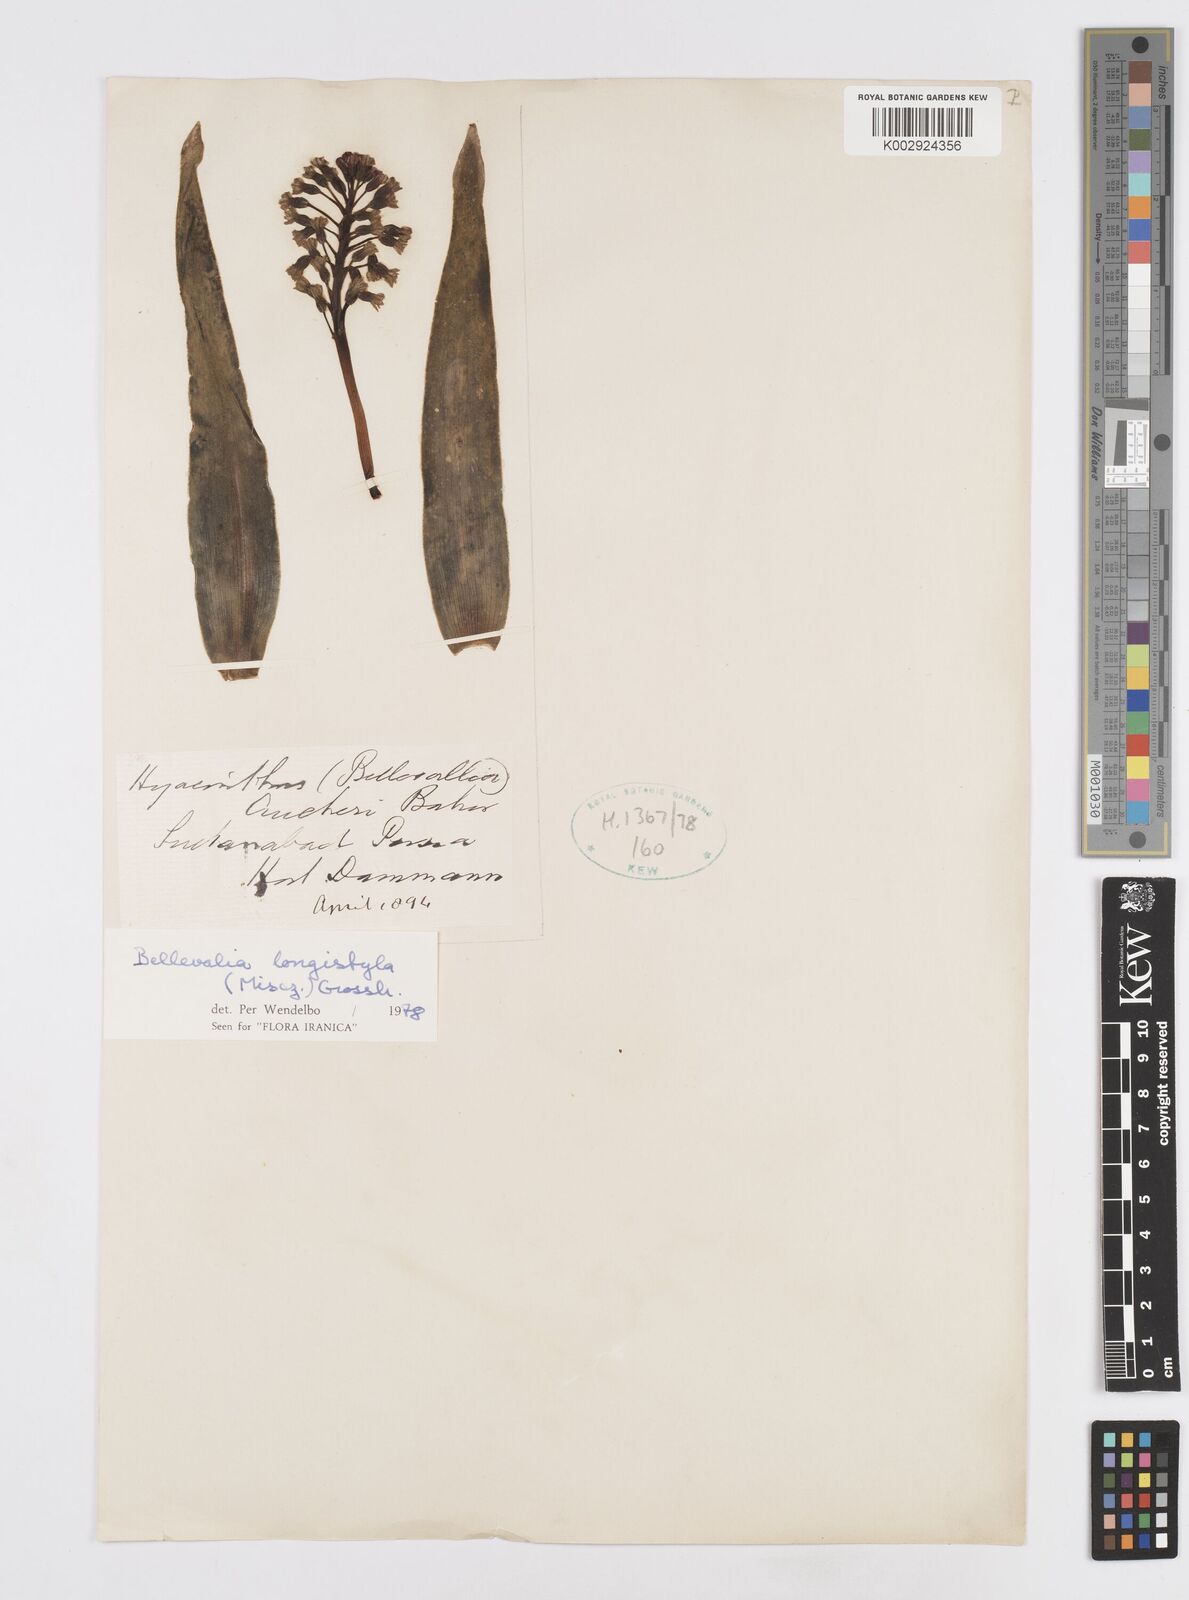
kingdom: Plantae
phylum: Tracheophyta
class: Liliopsida
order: Asparagales
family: Asparagaceae
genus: Bellevalia
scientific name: Bellevalia longistyla
